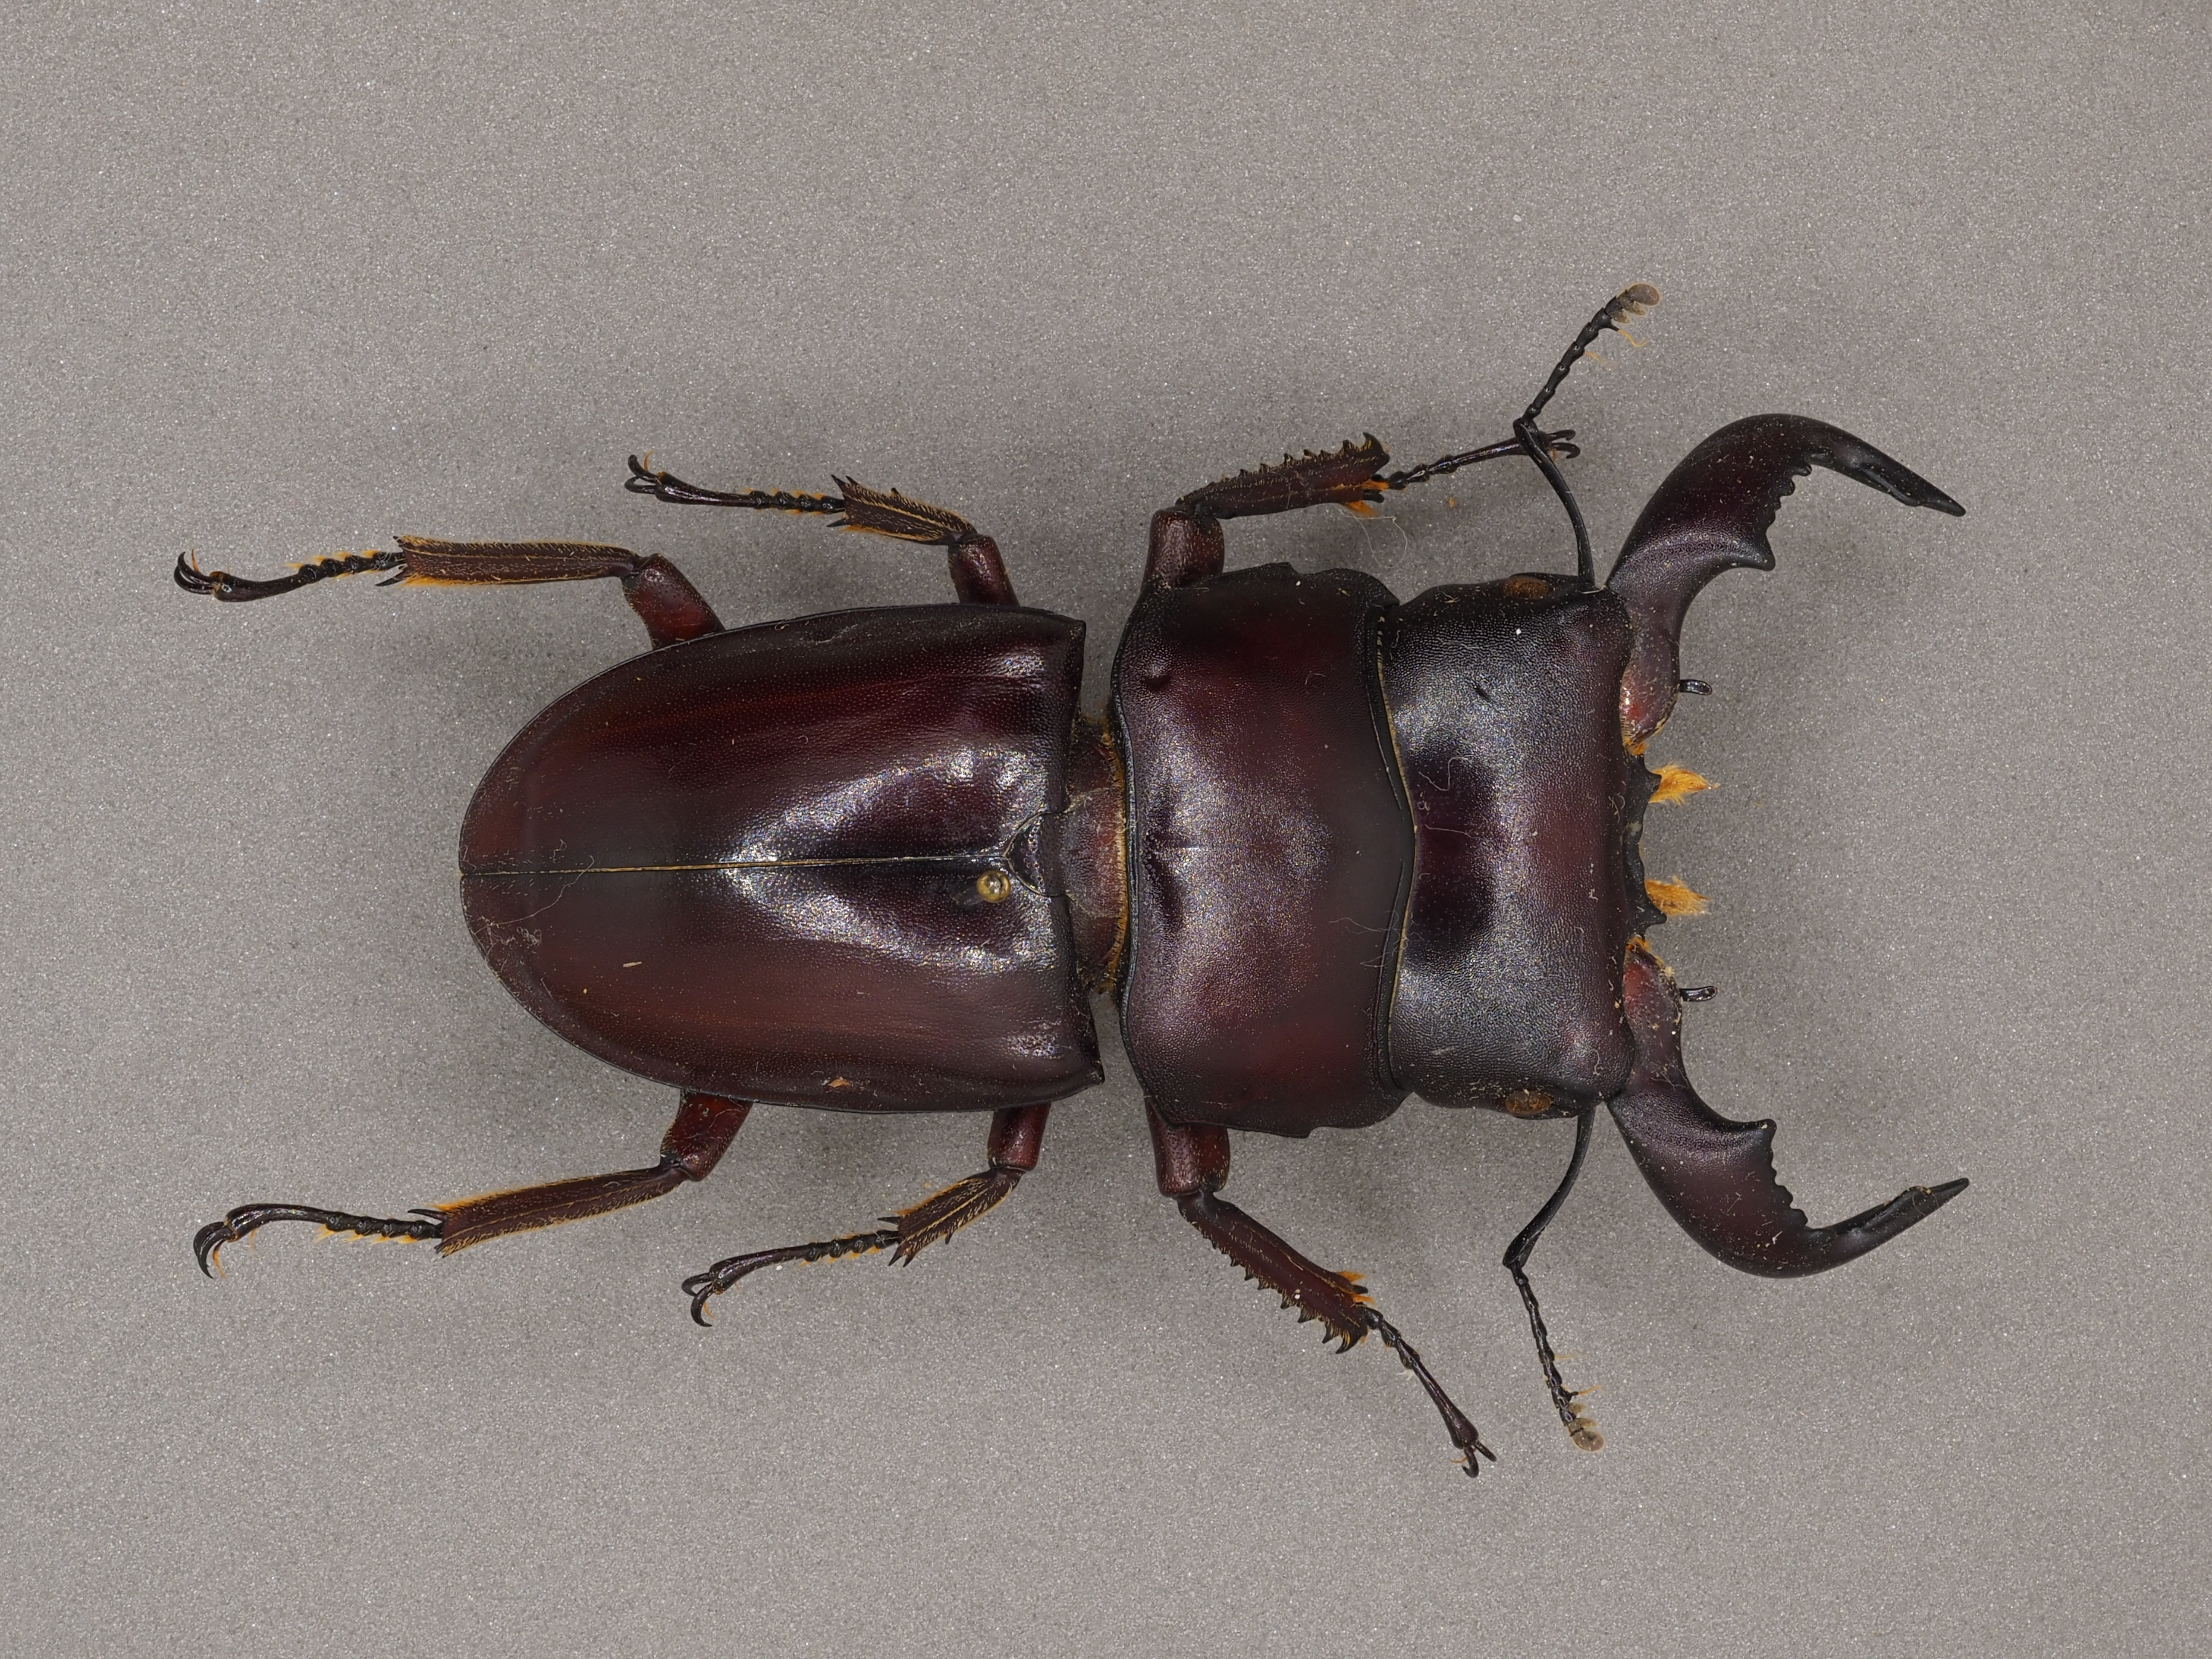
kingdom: Animalia
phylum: Arthropoda
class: Insecta
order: Coleoptera
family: Lucanidae
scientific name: Lucanidae
